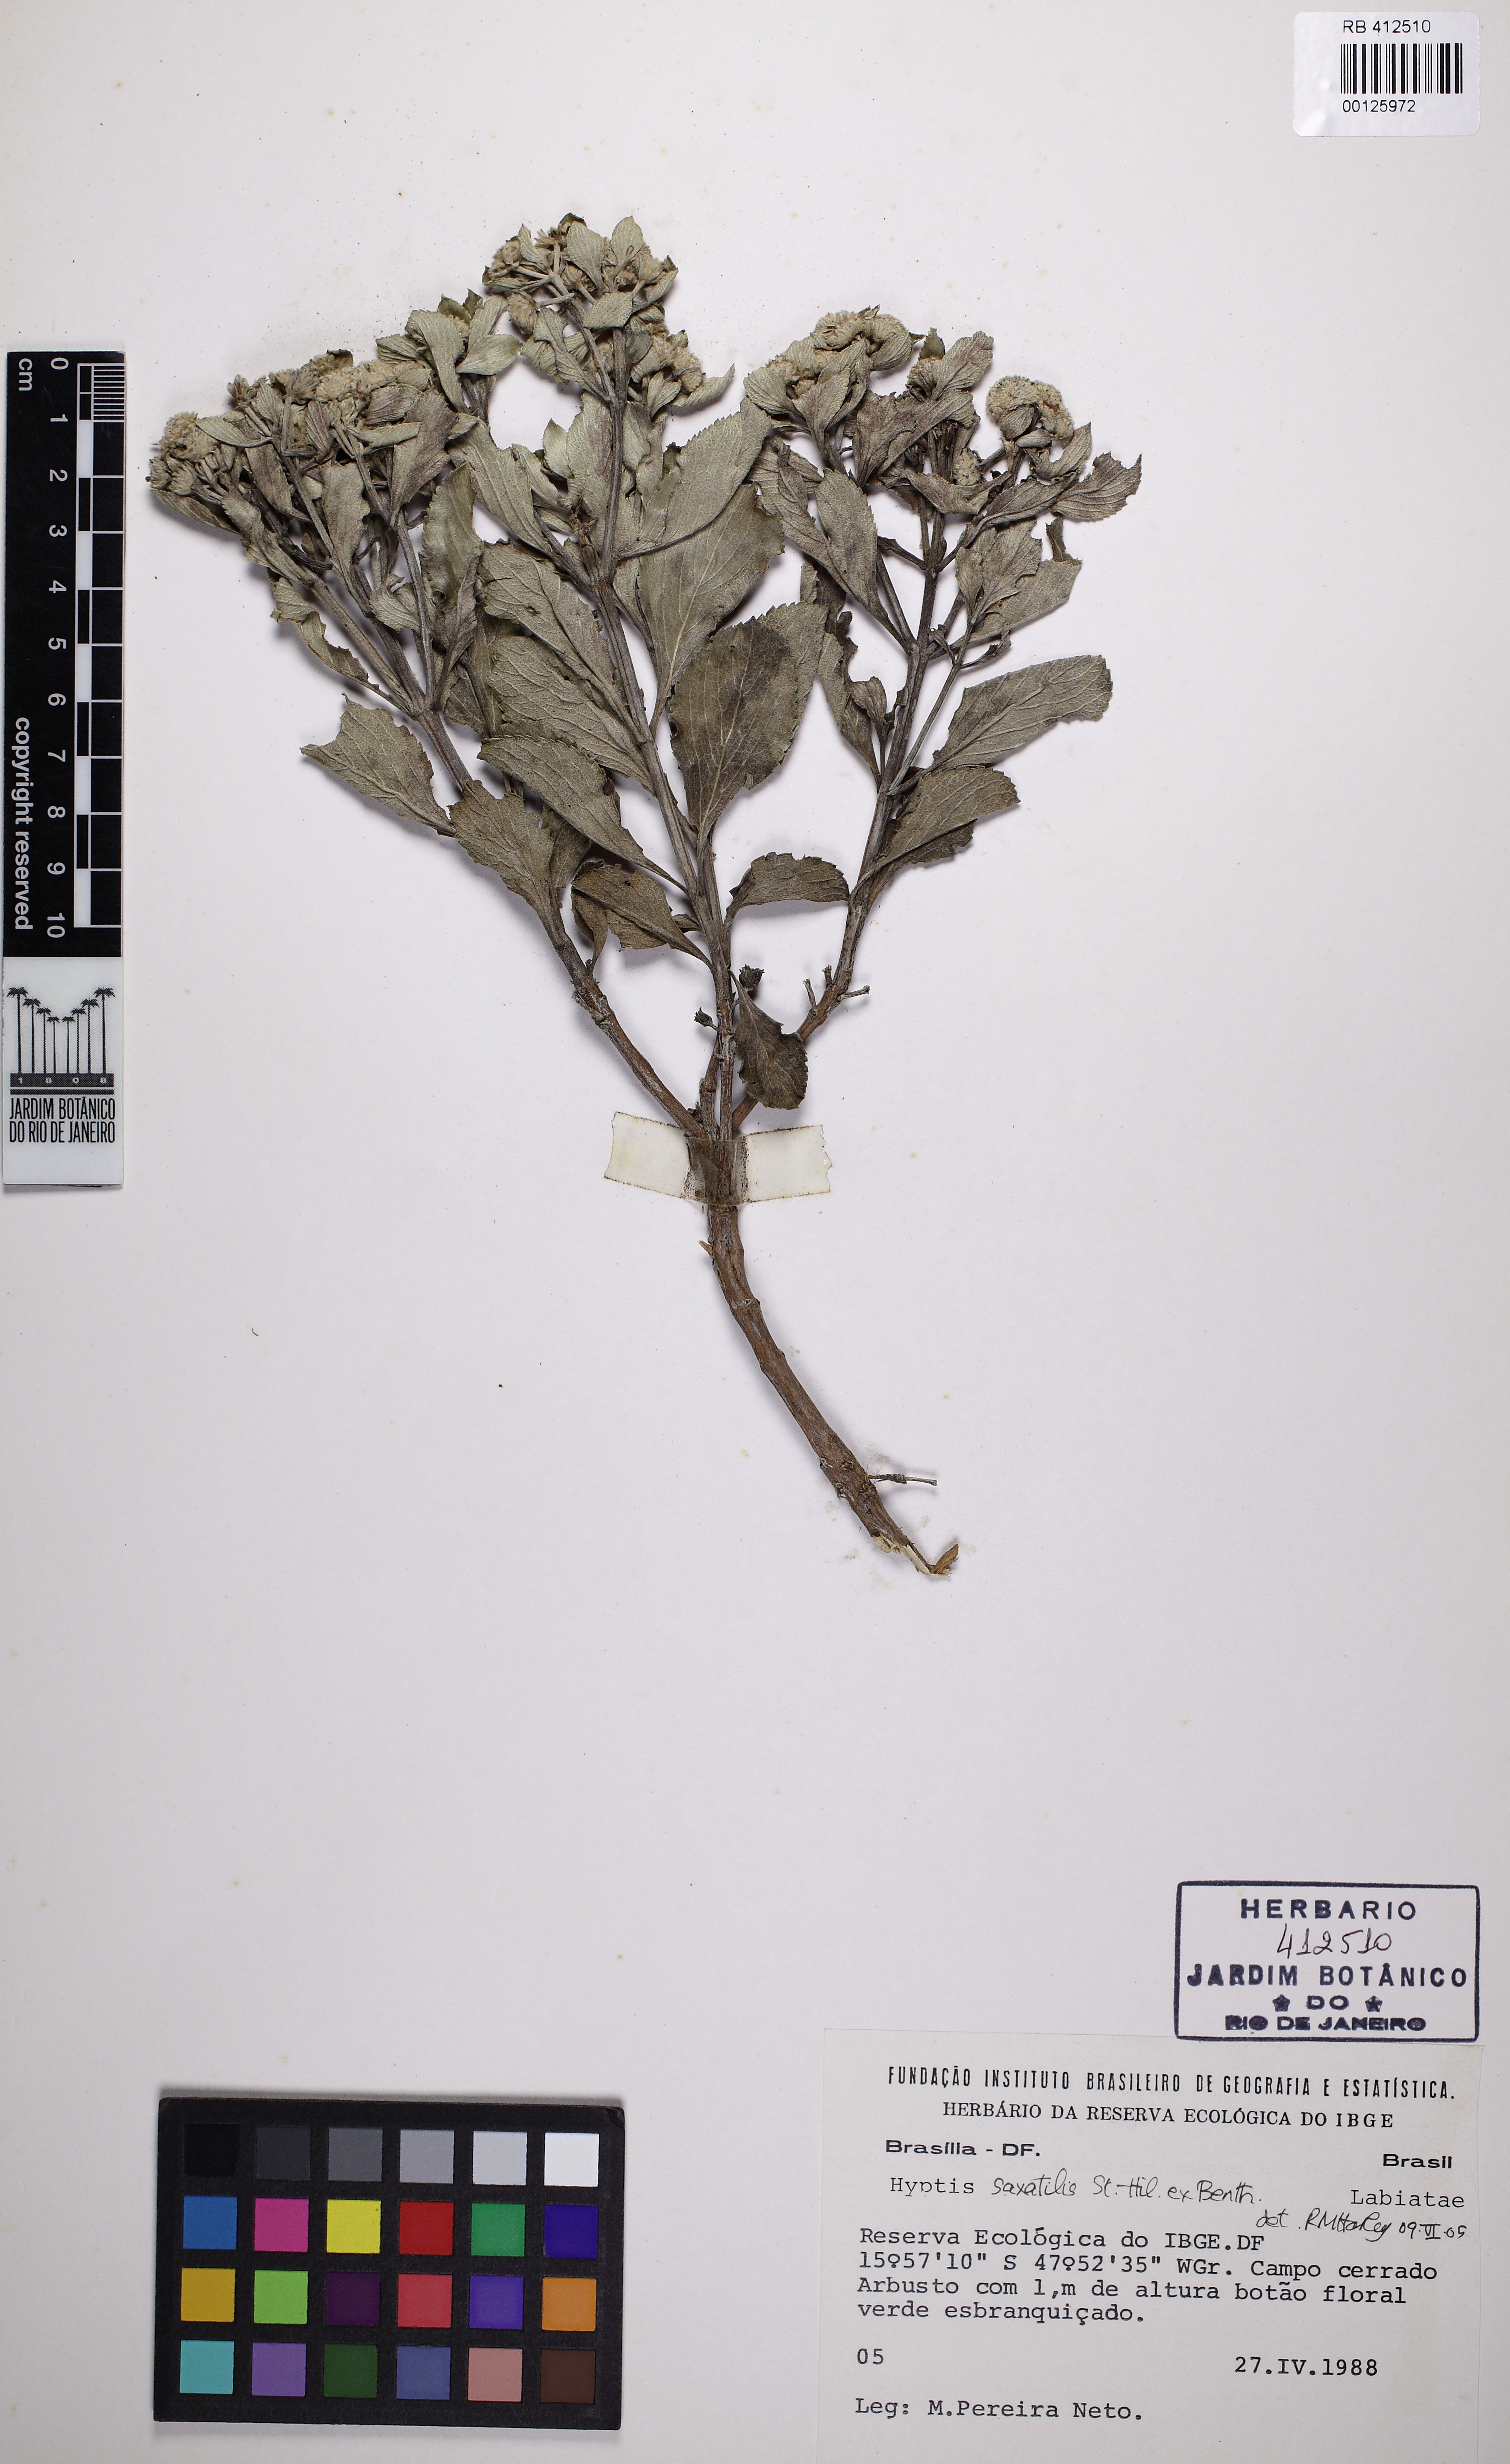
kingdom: Plantae
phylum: Tracheophyta
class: Magnoliopsida
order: Lamiales
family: Lamiaceae
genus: Hyptis
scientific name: Hyptis saxatilis
